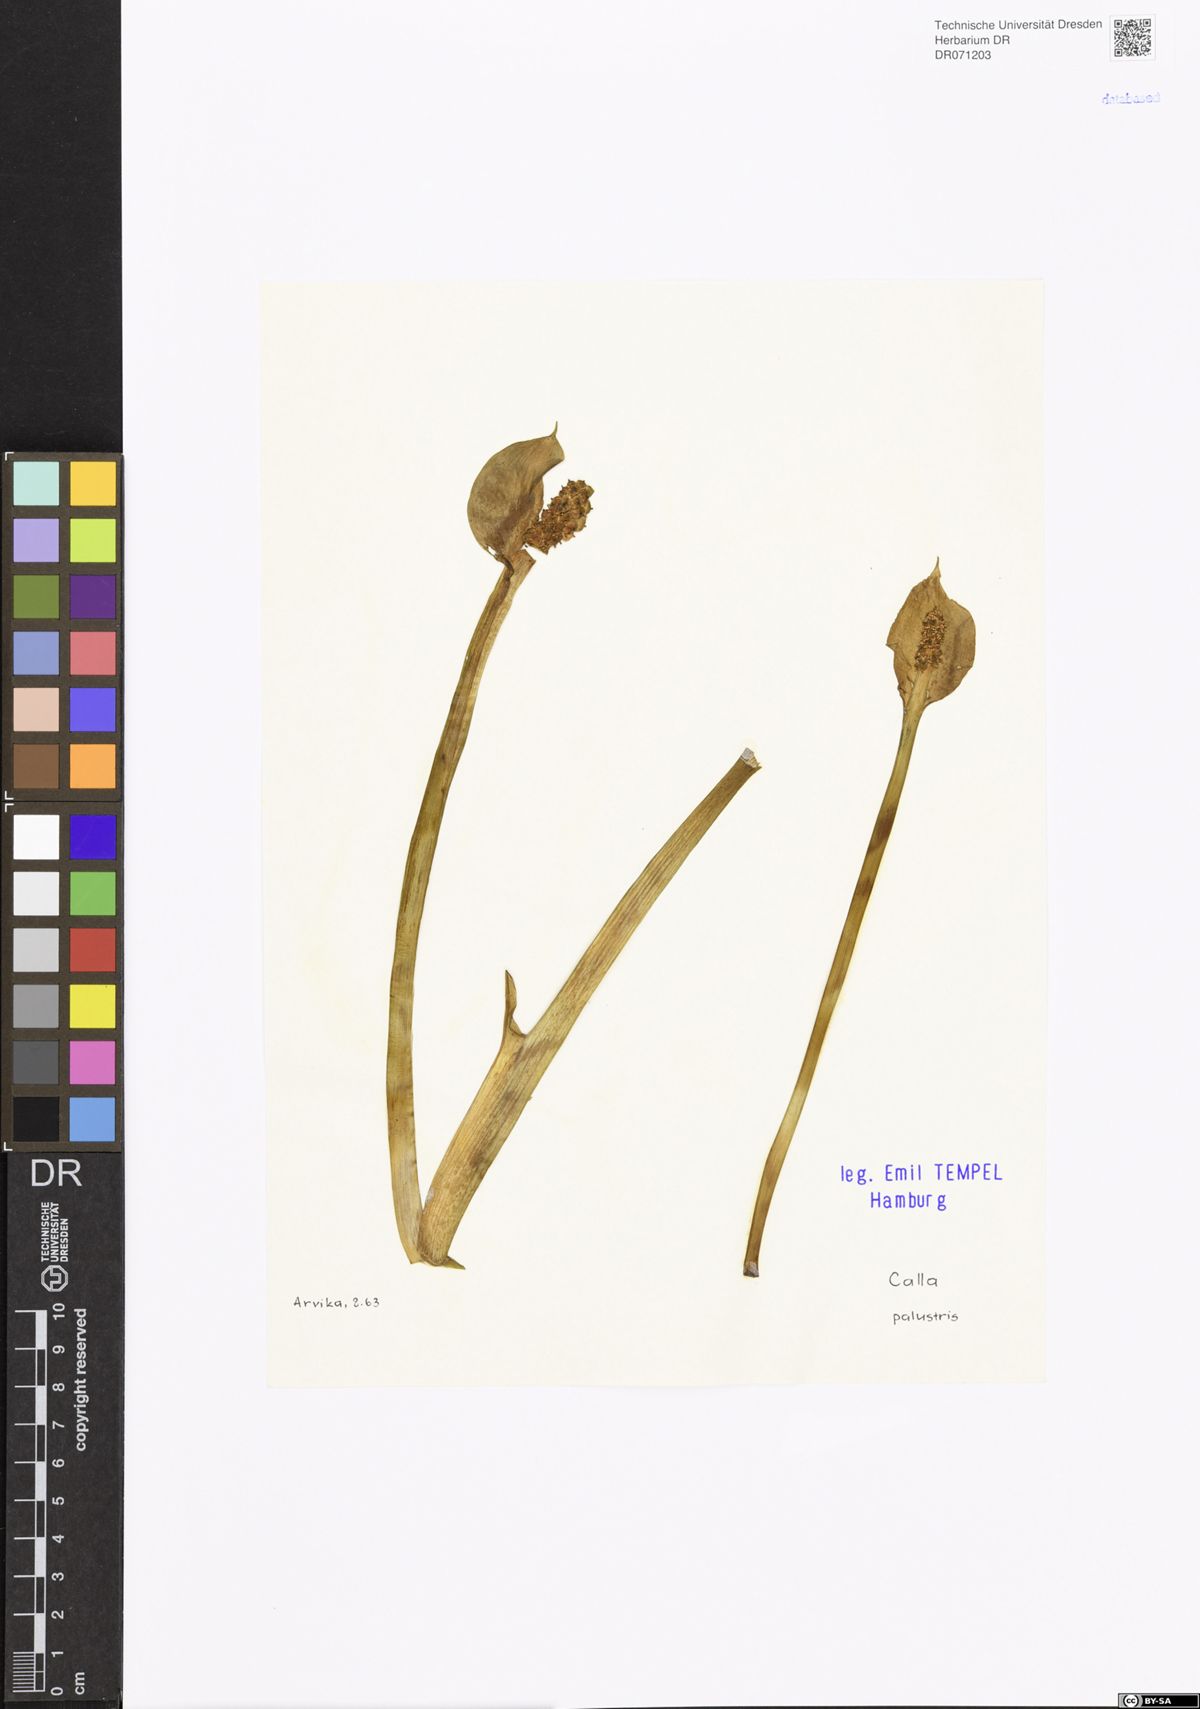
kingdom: Plantae
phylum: Tracheophyta
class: Liliopsida
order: Alismatales
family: Araceae
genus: Calla
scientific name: Calla palustris
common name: Bog arum
